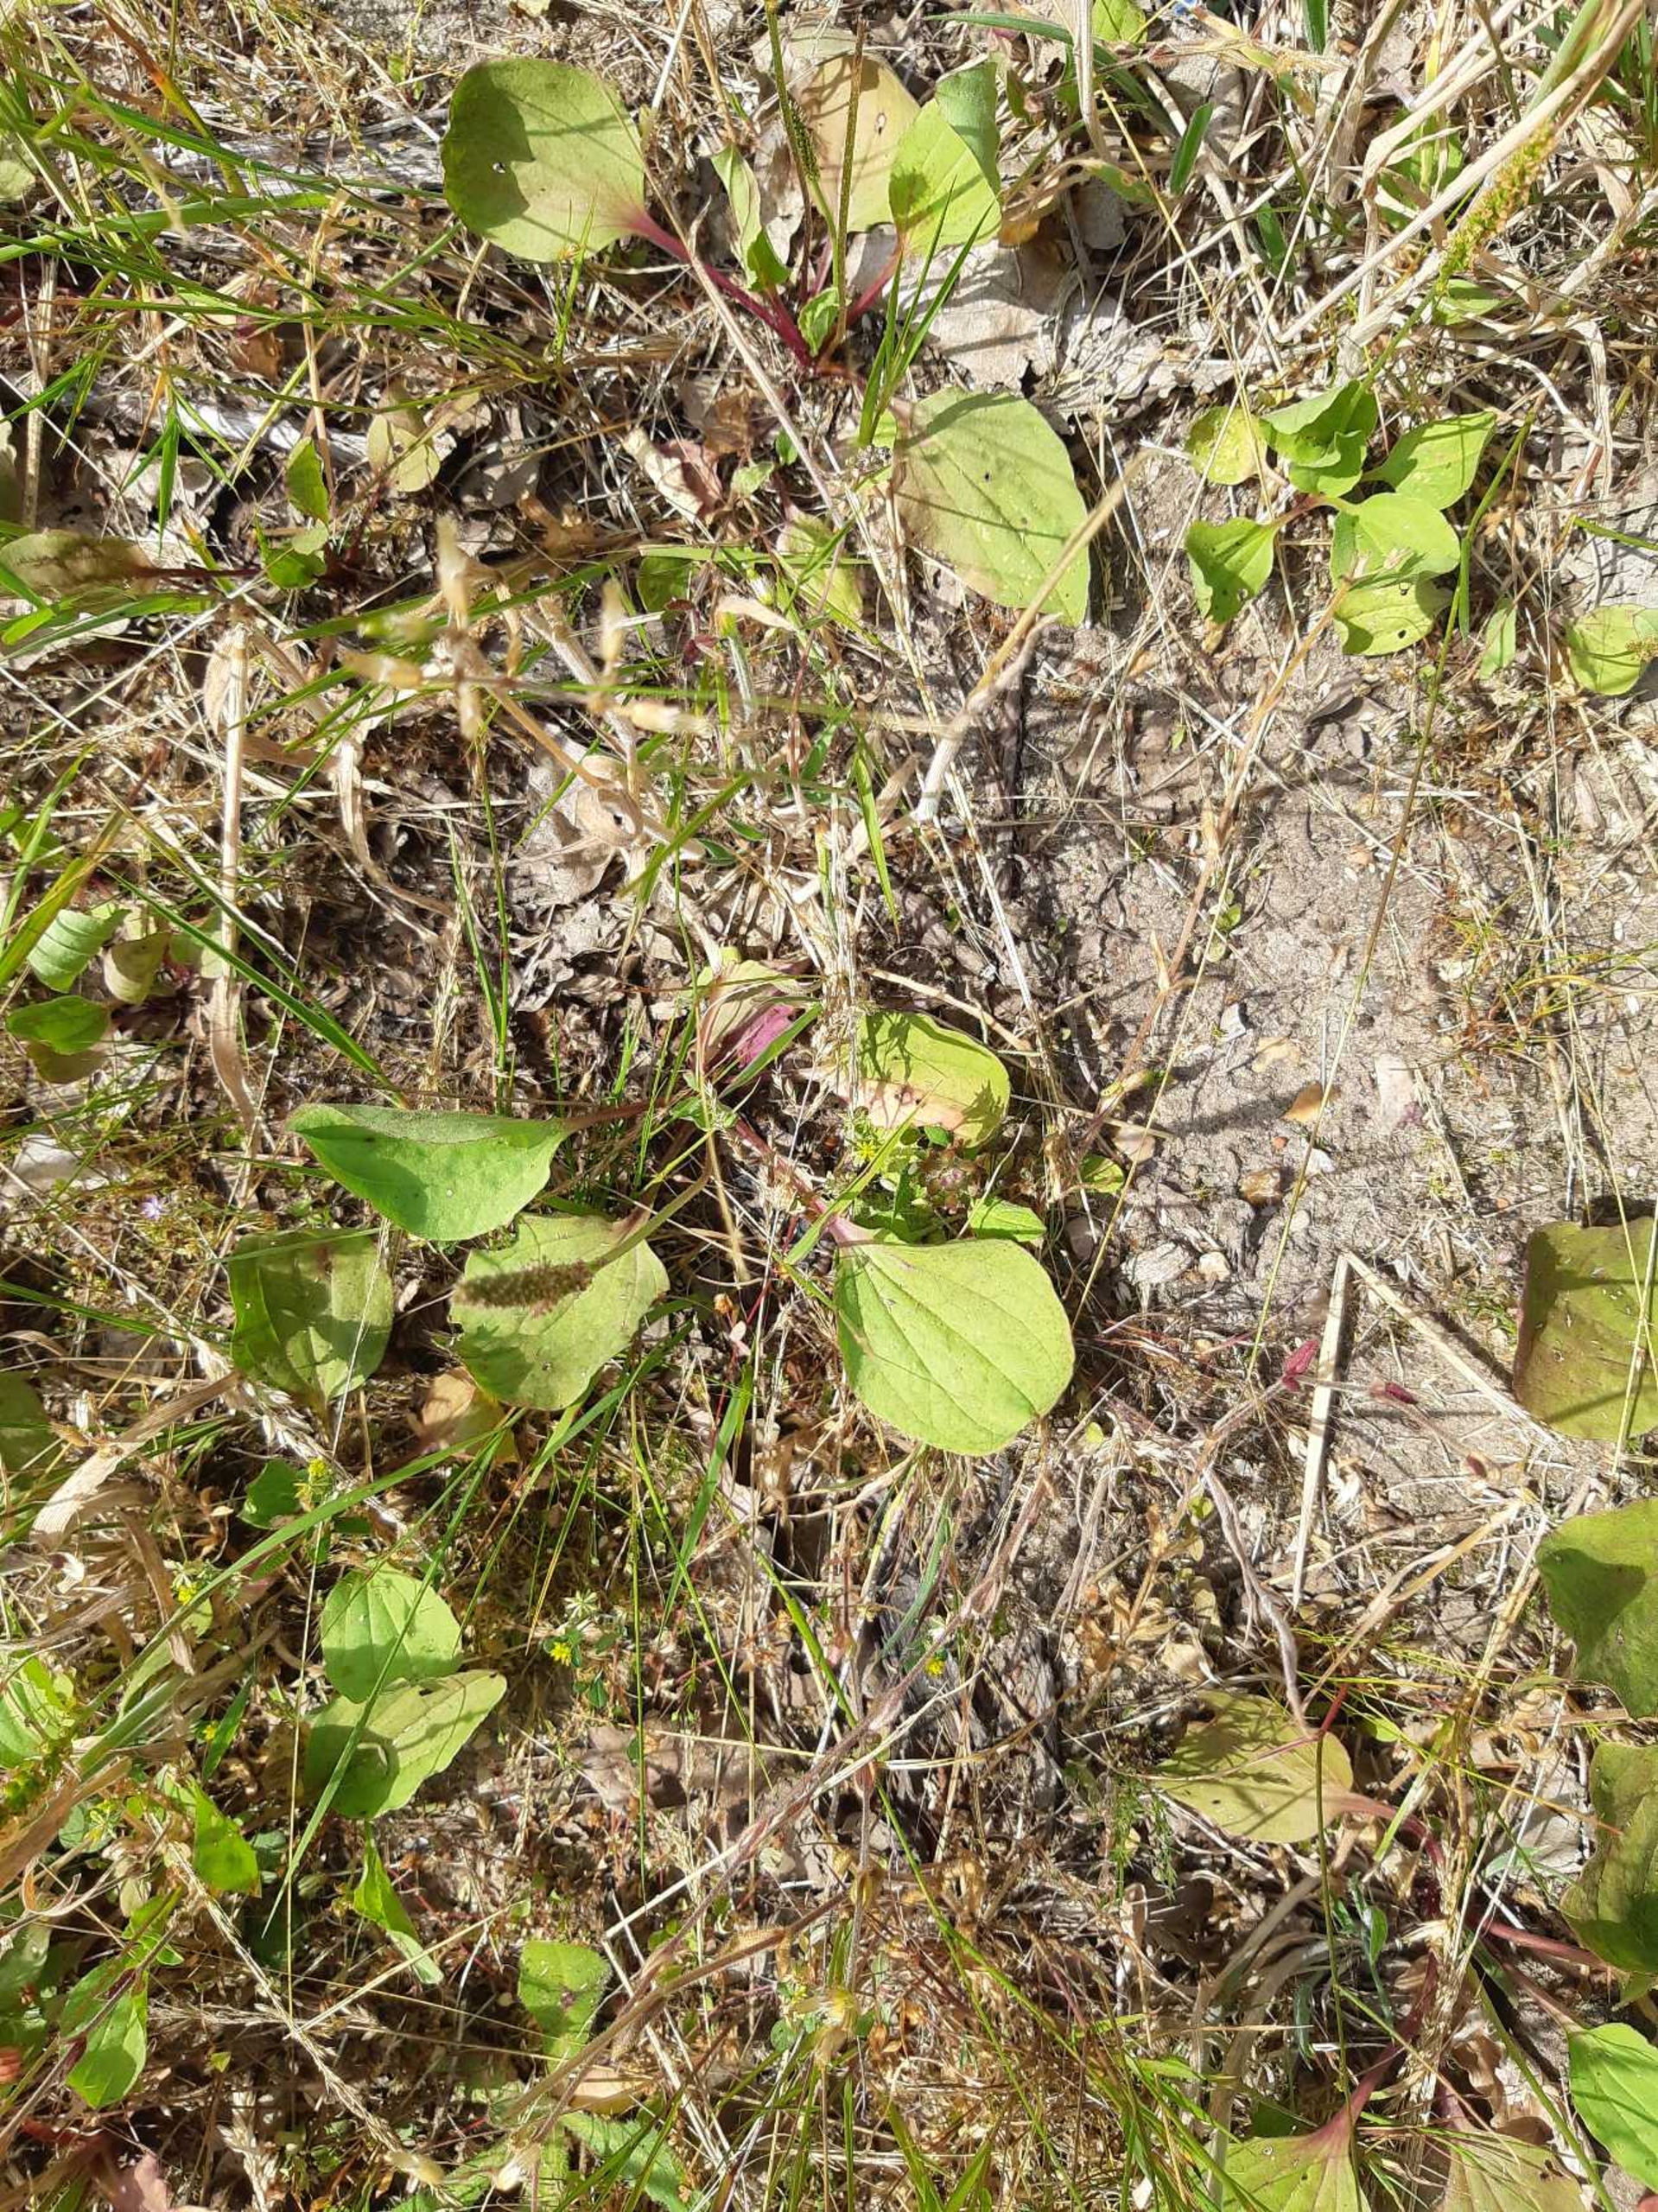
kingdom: Plantae
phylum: Tracheophyta
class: Magnoliopsida
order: Lamiales
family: Plantaginaceae
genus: Plantago
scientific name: Plantago major
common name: Glat vejbred
